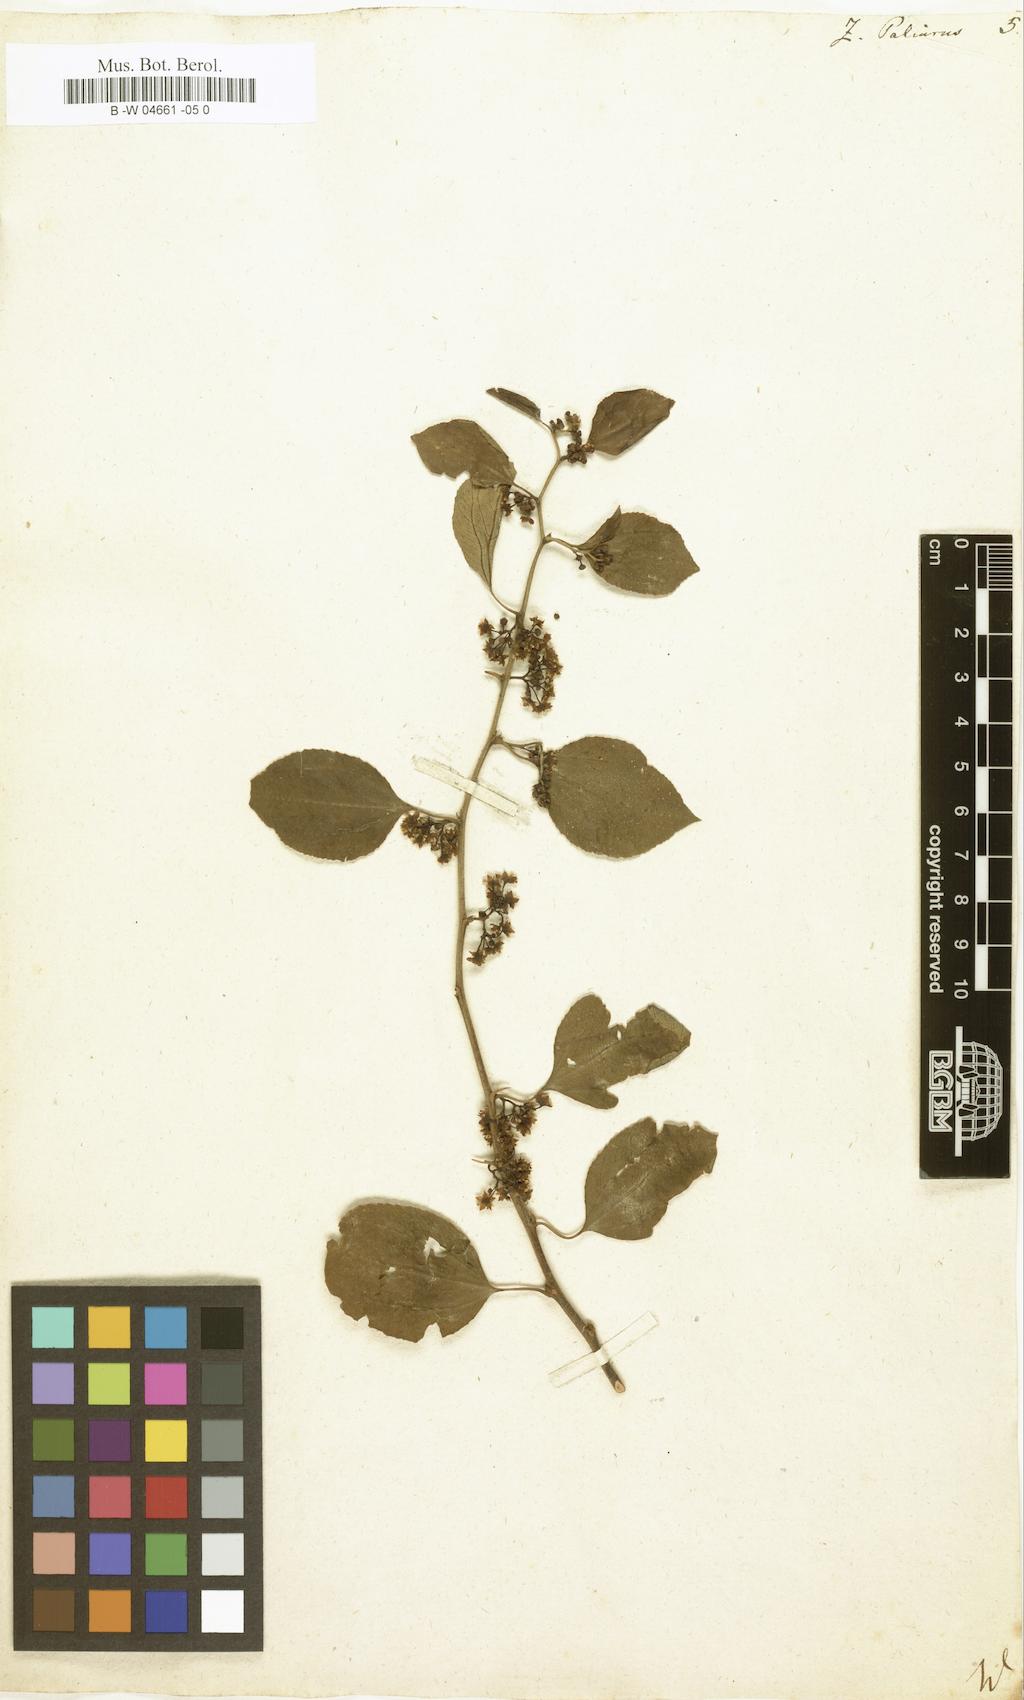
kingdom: Plantae
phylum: Tracheophyta
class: Magnoliopsida
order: Rosales
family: Rhamnaceae
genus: Paliurus
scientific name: Paliurus spina-christi
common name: Jeruselem thorn
